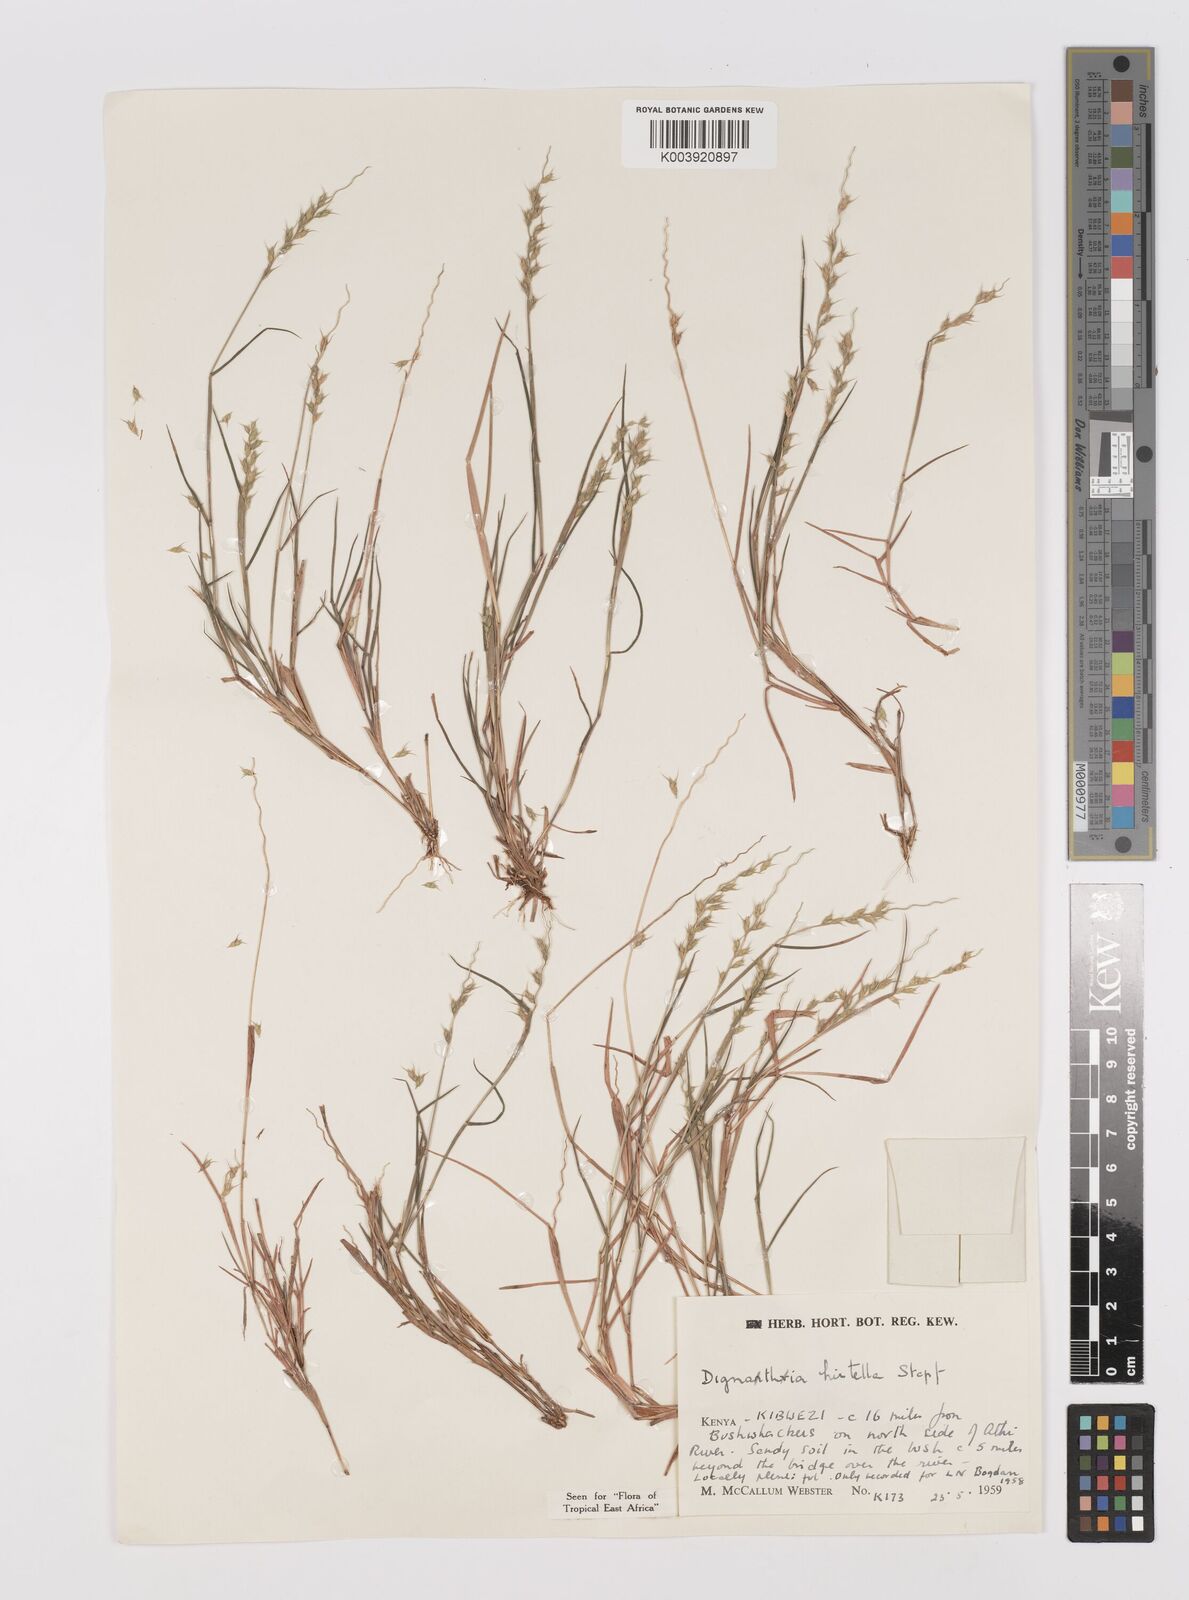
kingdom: Plantae
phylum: Tracheophyta
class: Liliopsida
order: Poales
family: Poaceae
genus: Dignathia
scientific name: Dignathia hirtella
